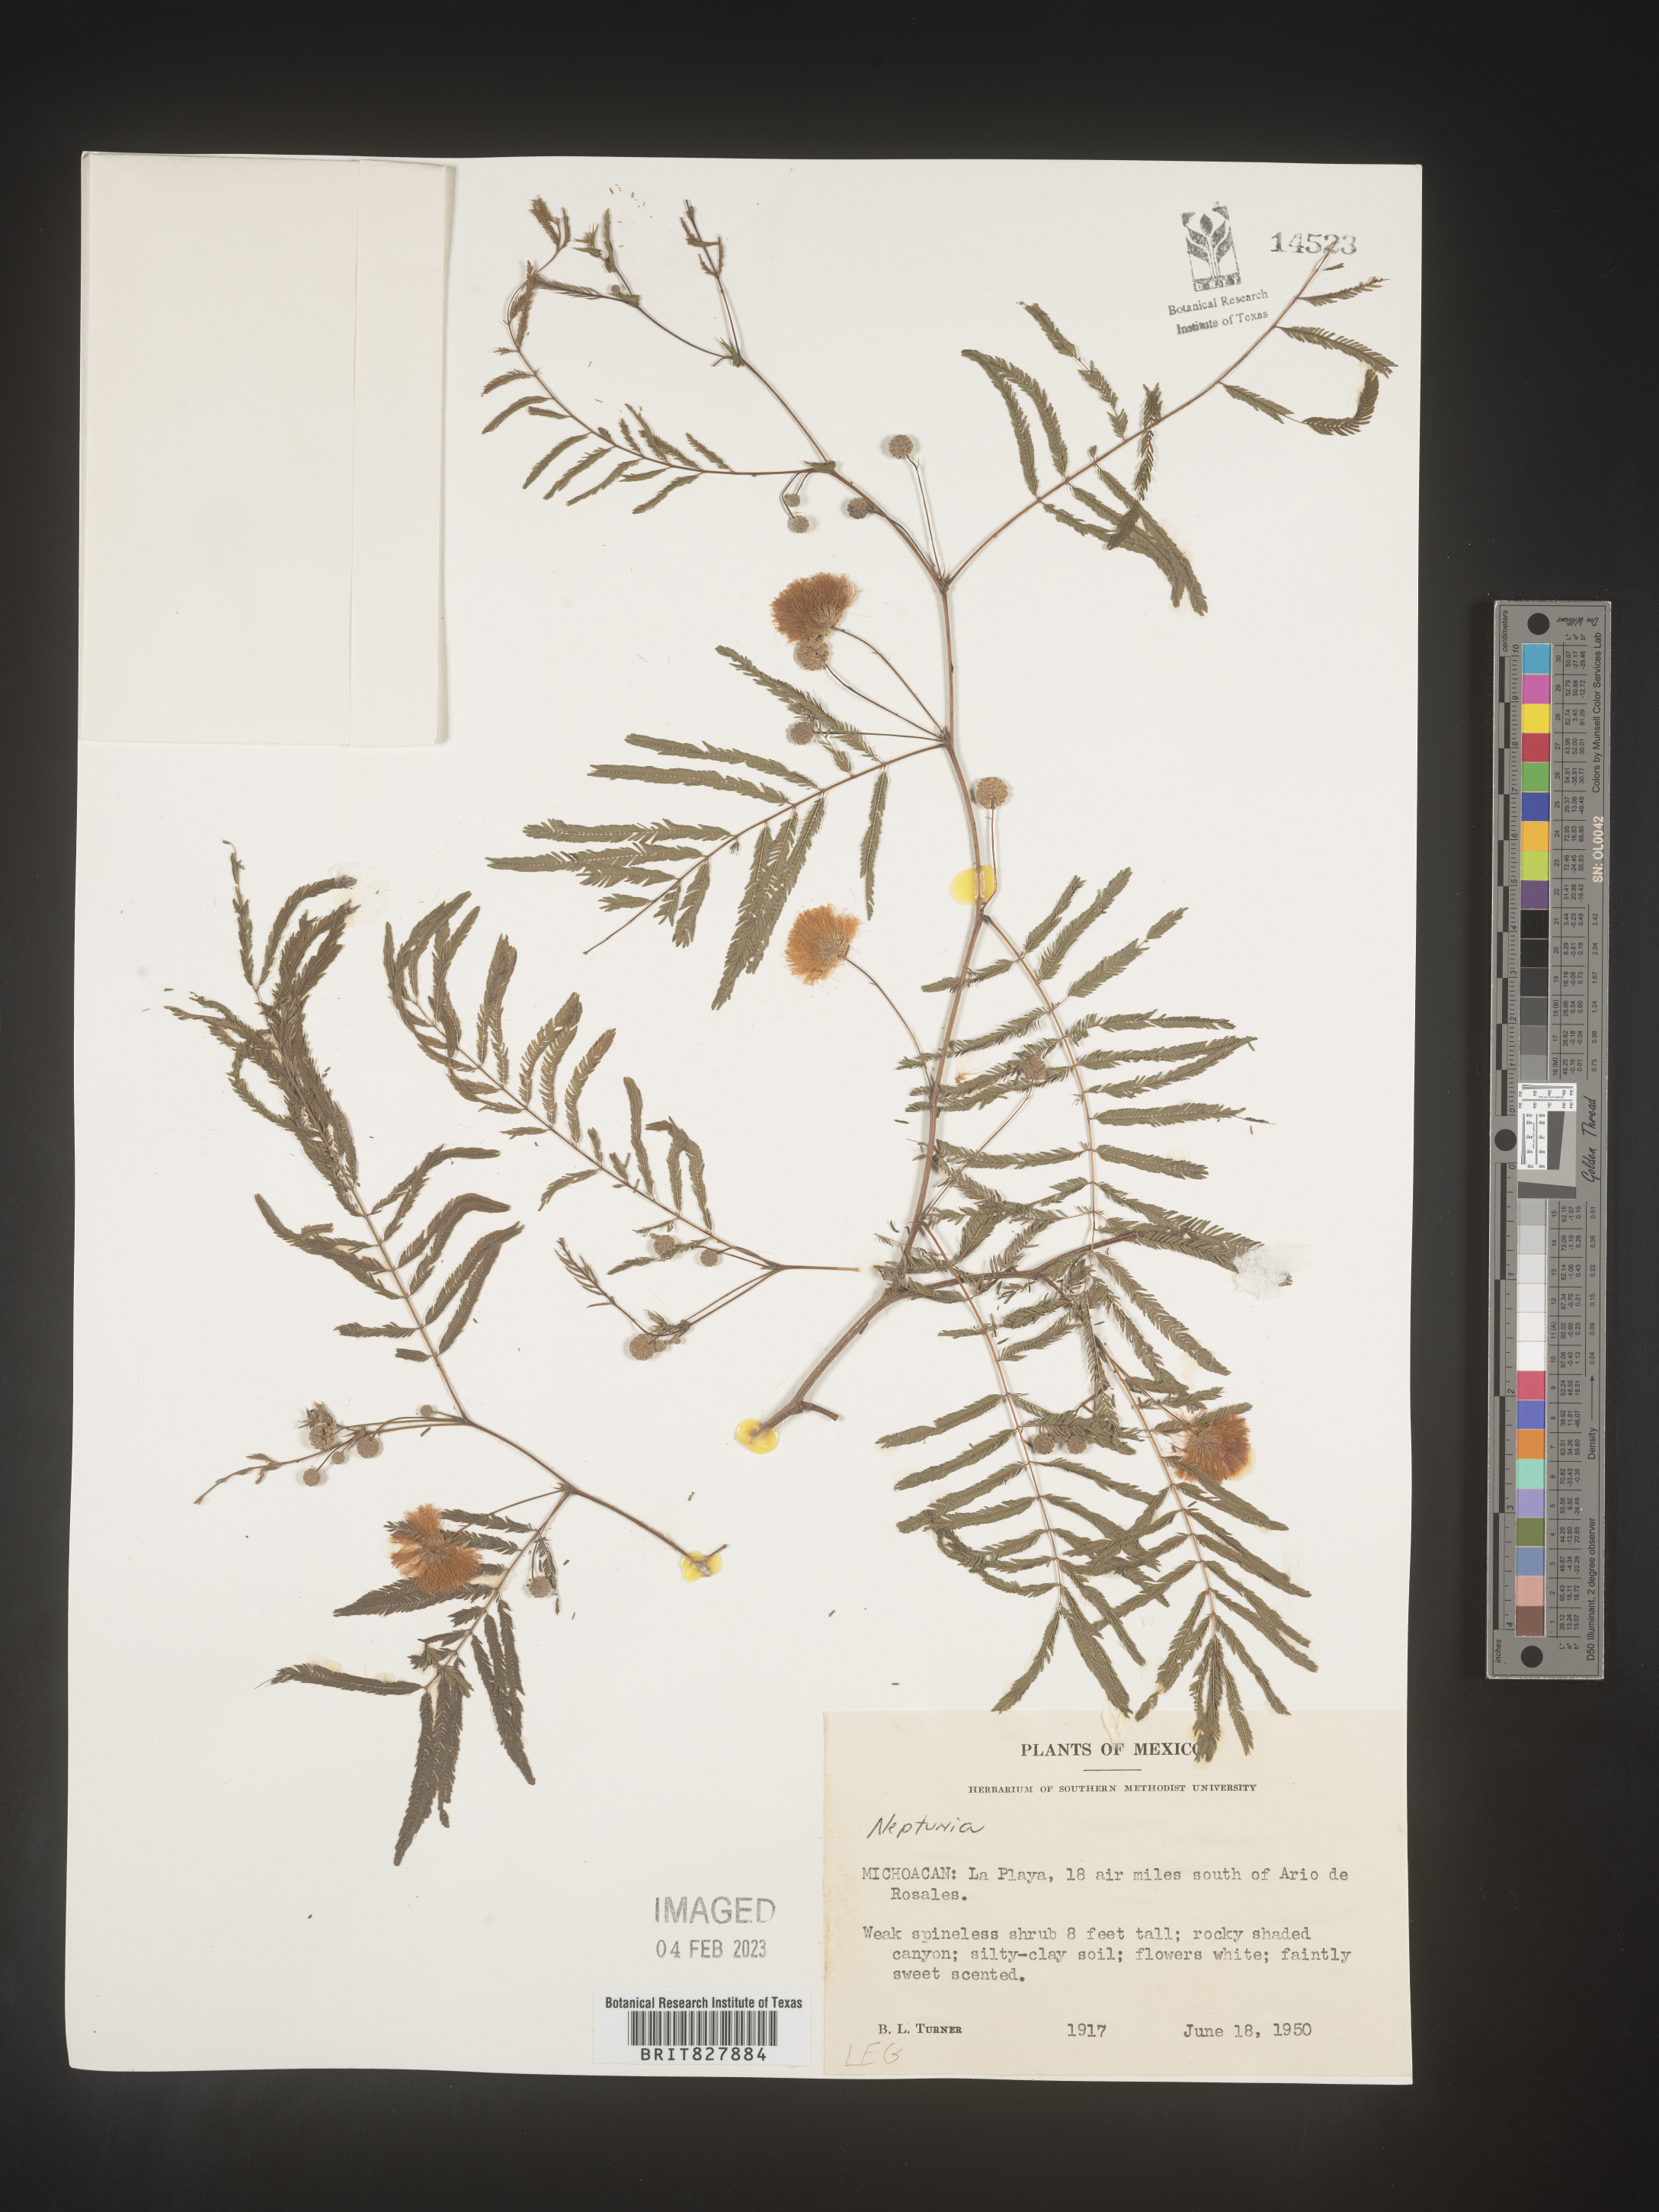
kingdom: Plantae
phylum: Tracheophyta
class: Magnoliopsida
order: Fabales
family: Fabaceae
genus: Neptunia
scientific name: Neptunia
